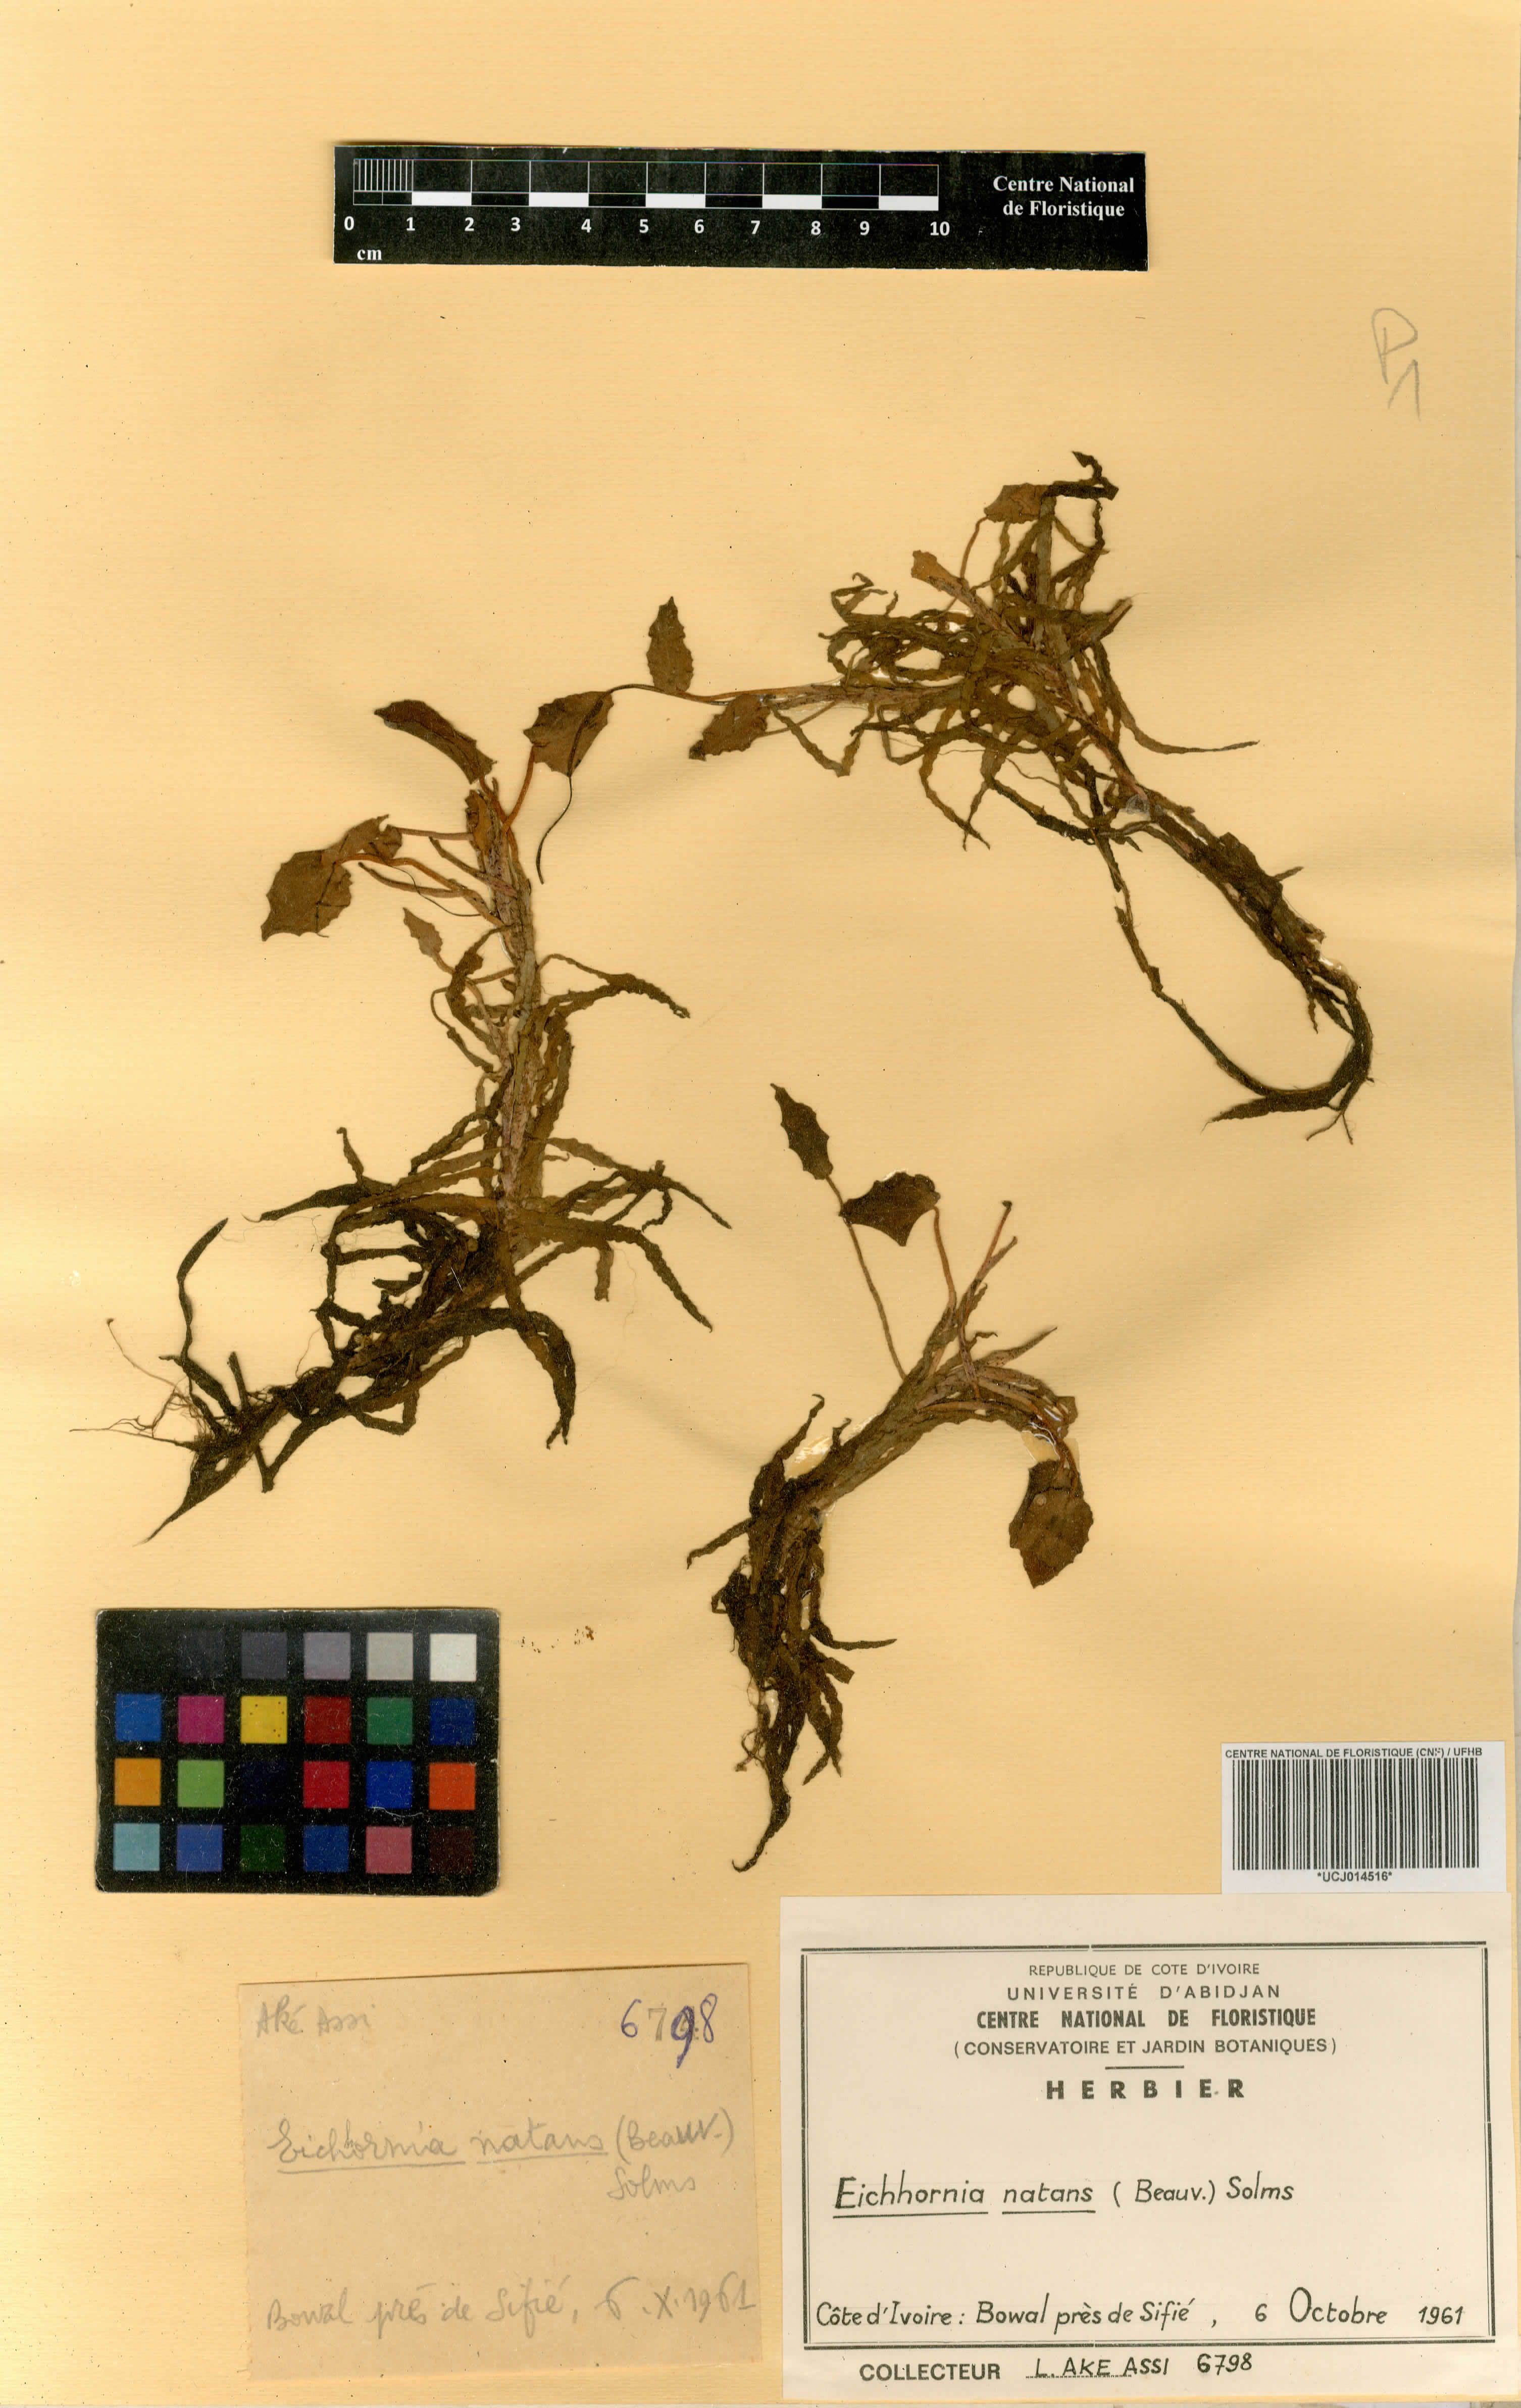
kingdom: Plantae
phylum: Tracheophyta
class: Liliopsida
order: Commelinales
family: Pontederiaceae
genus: Pontederia
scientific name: Pontederia natans
